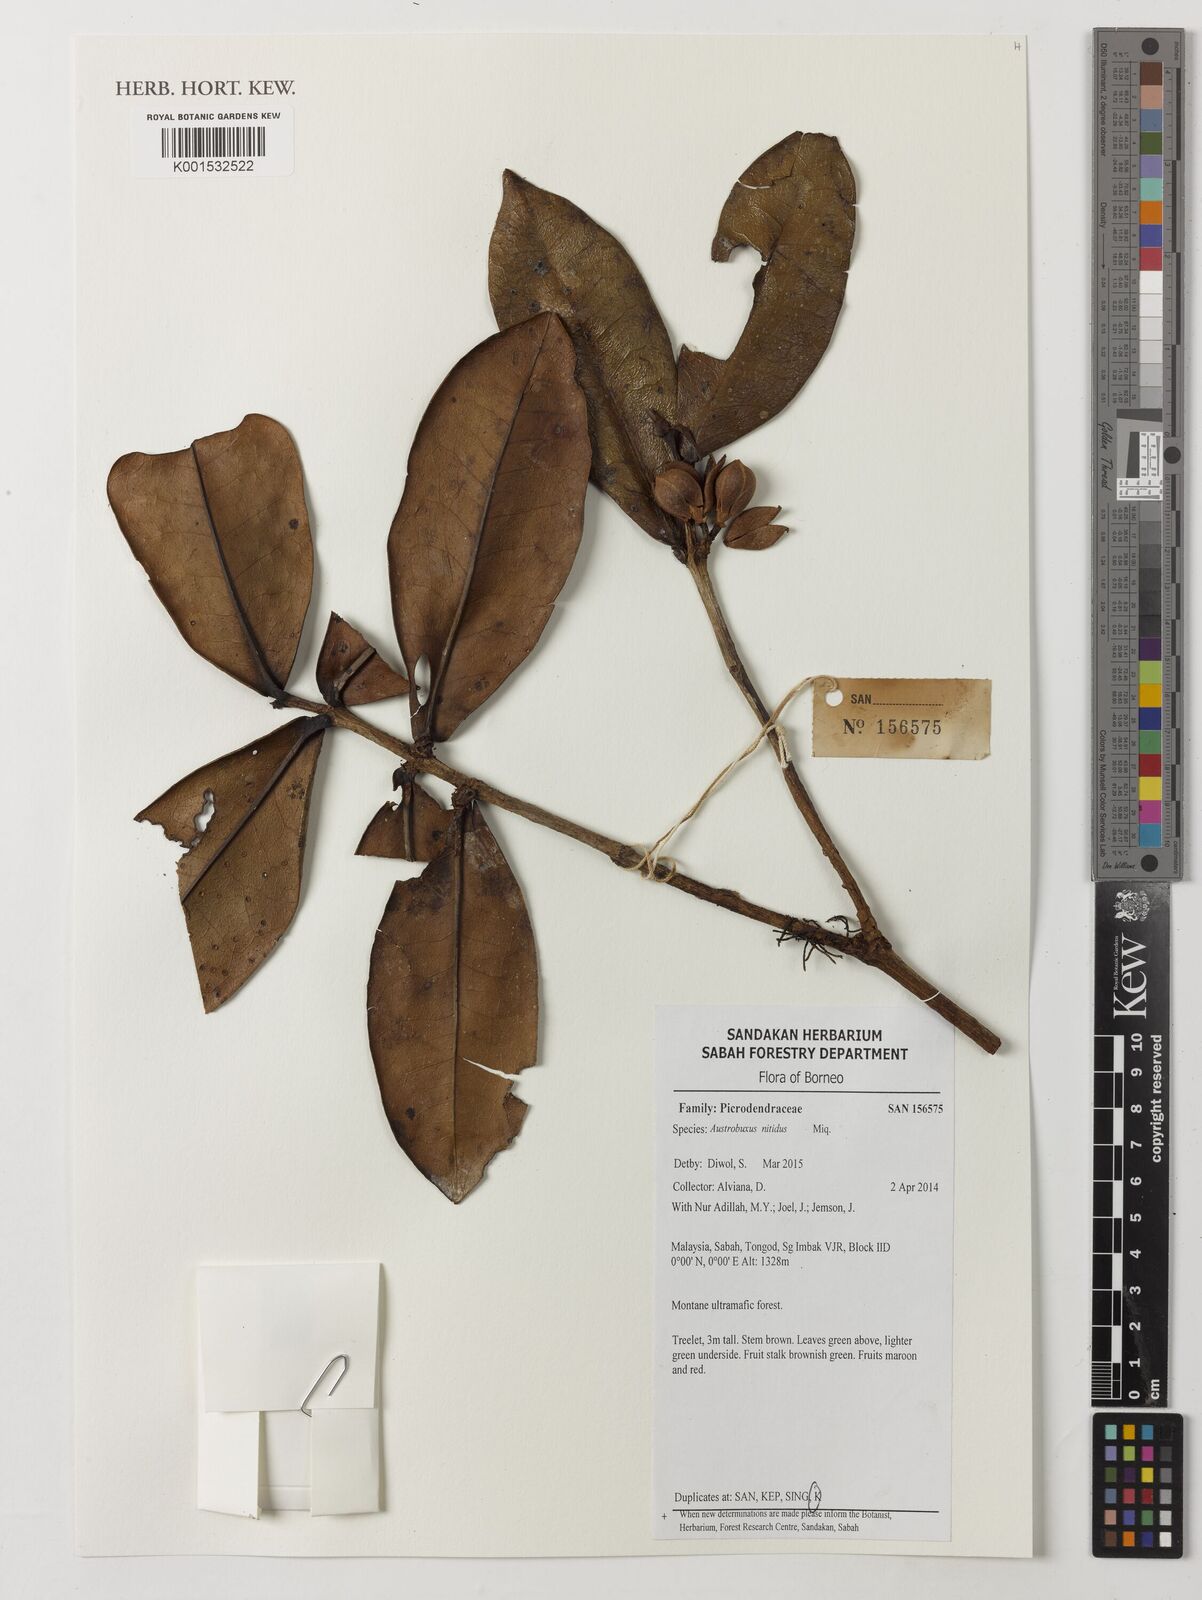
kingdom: Plantae
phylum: Tracheophyta
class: Magnoliopsida
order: Malpighiales
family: Picrodendraceae
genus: Austrobuxus
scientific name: Austrobuxus nitidus
